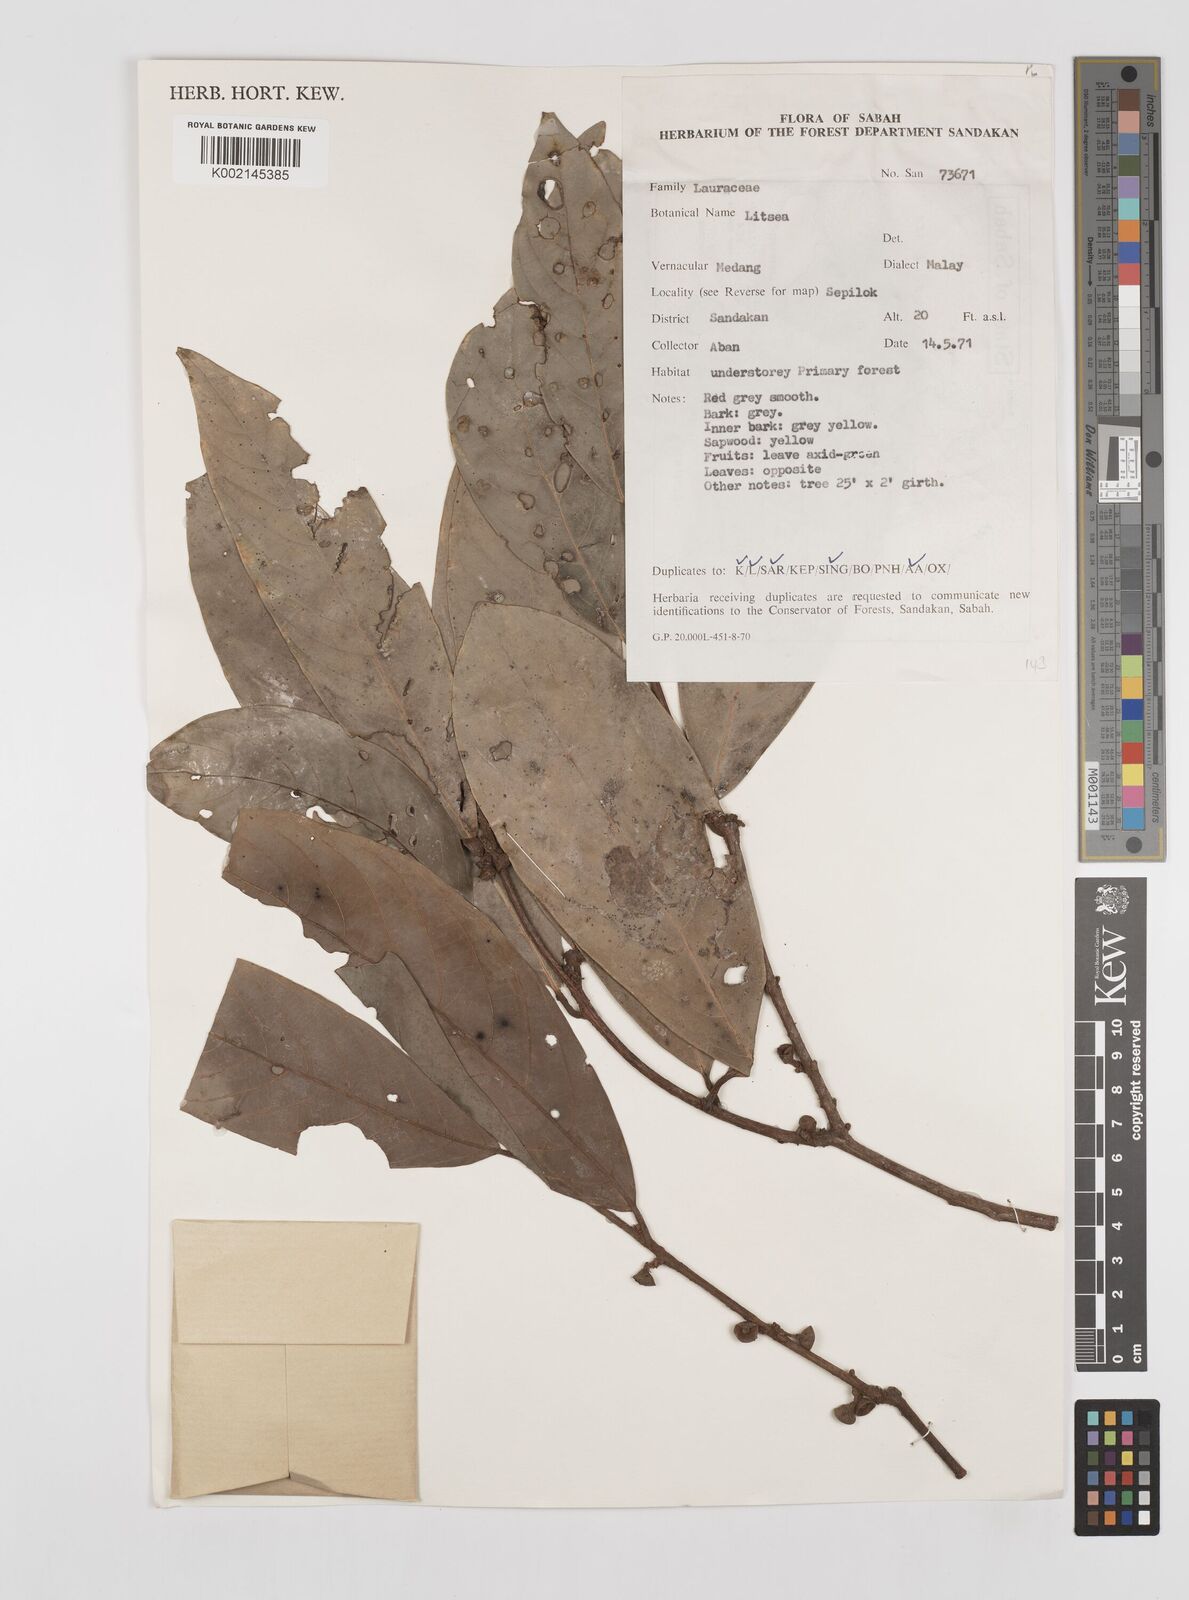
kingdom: Plantae
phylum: Tracheophyta
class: Magnoliopsida
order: Laurales
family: Lauraceae
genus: Litsea
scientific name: Litsea
